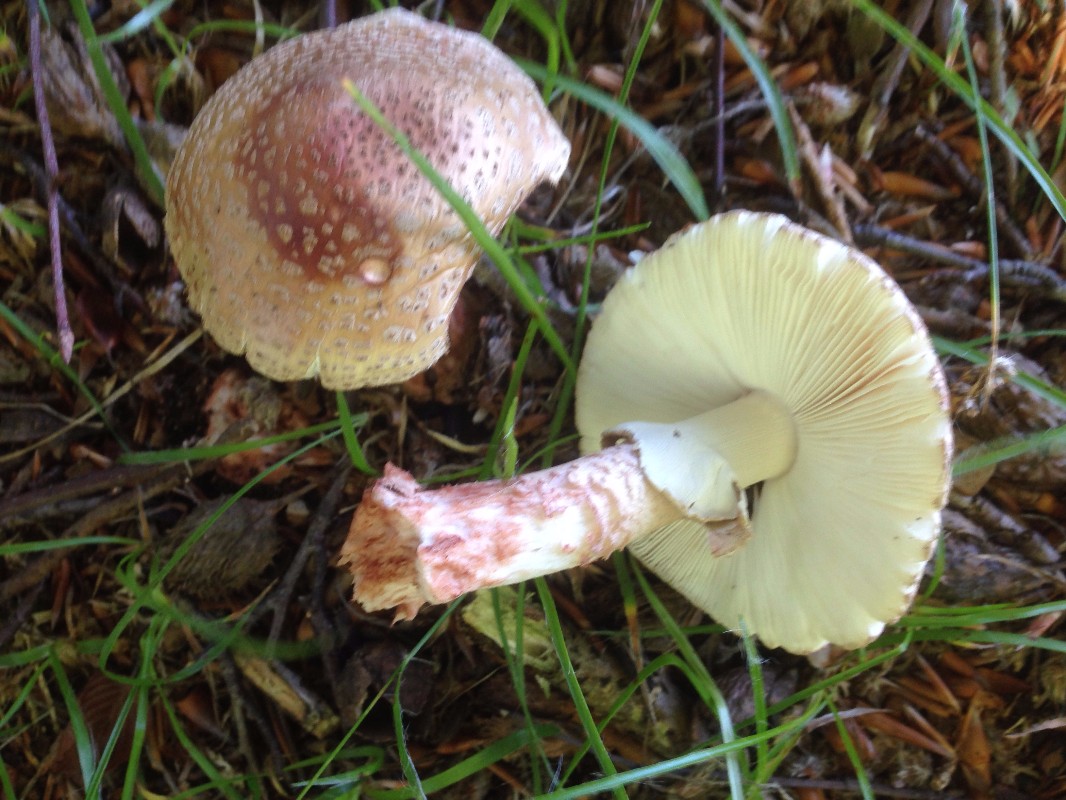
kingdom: Fungi
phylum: Basidiomycota
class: Agaricomycetes
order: Agaricales
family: Amanitaceae
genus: Amanita
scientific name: Amanita rubescens
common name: rødmende fluesvamp
